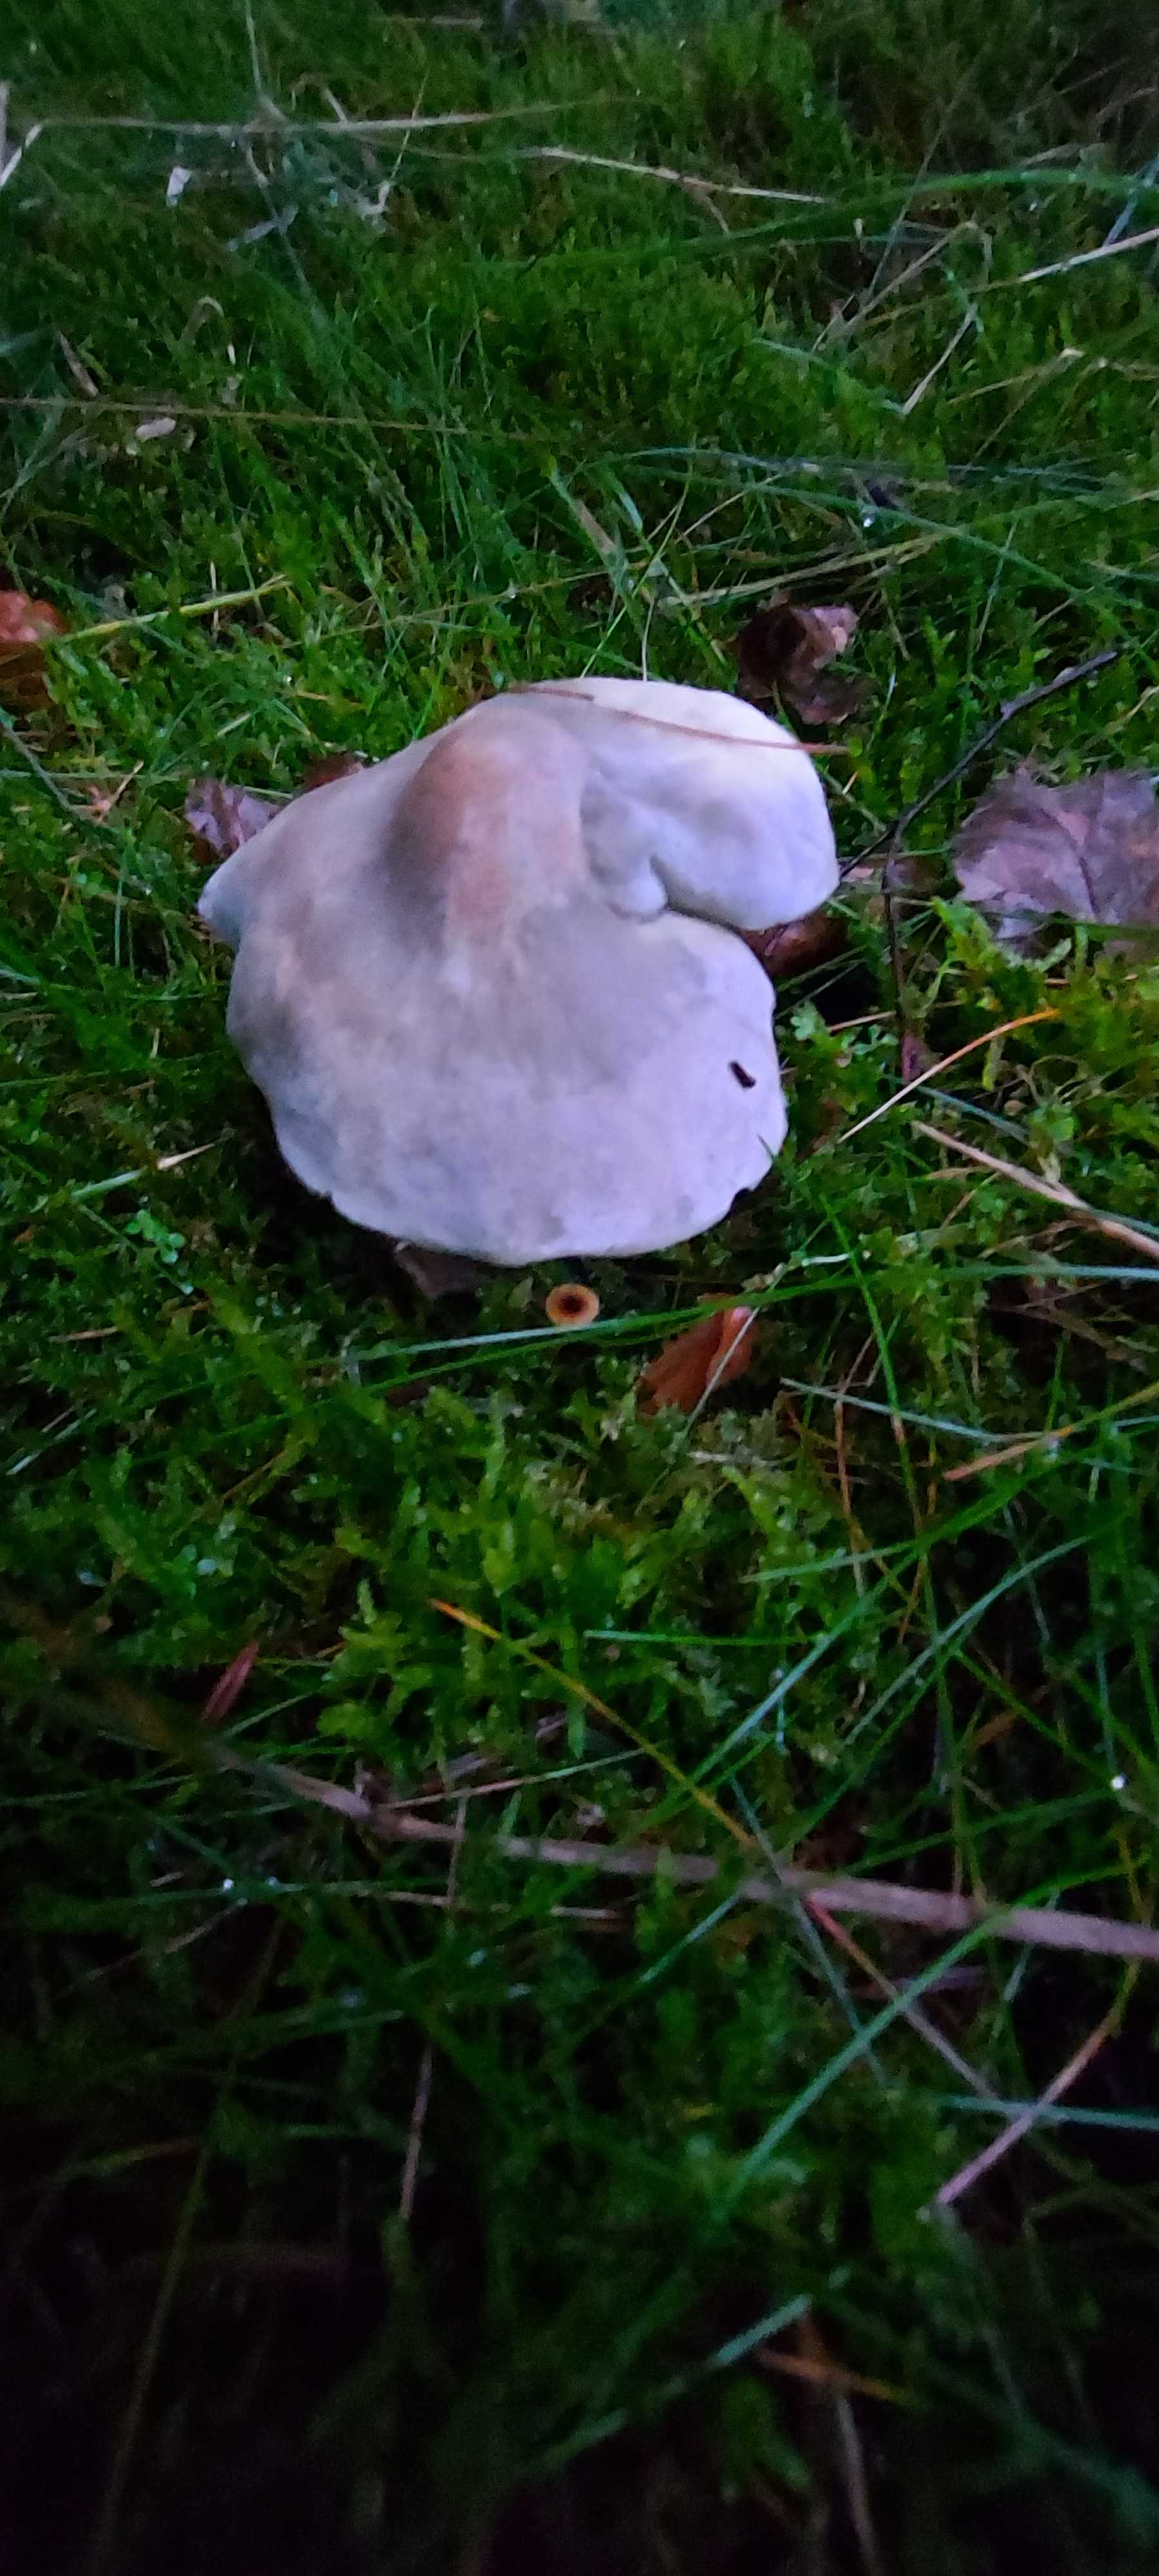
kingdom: Fungi
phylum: Basidiomycota
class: Agaricomycetes
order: Agaricales
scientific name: Agaricales
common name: champignonordenen
